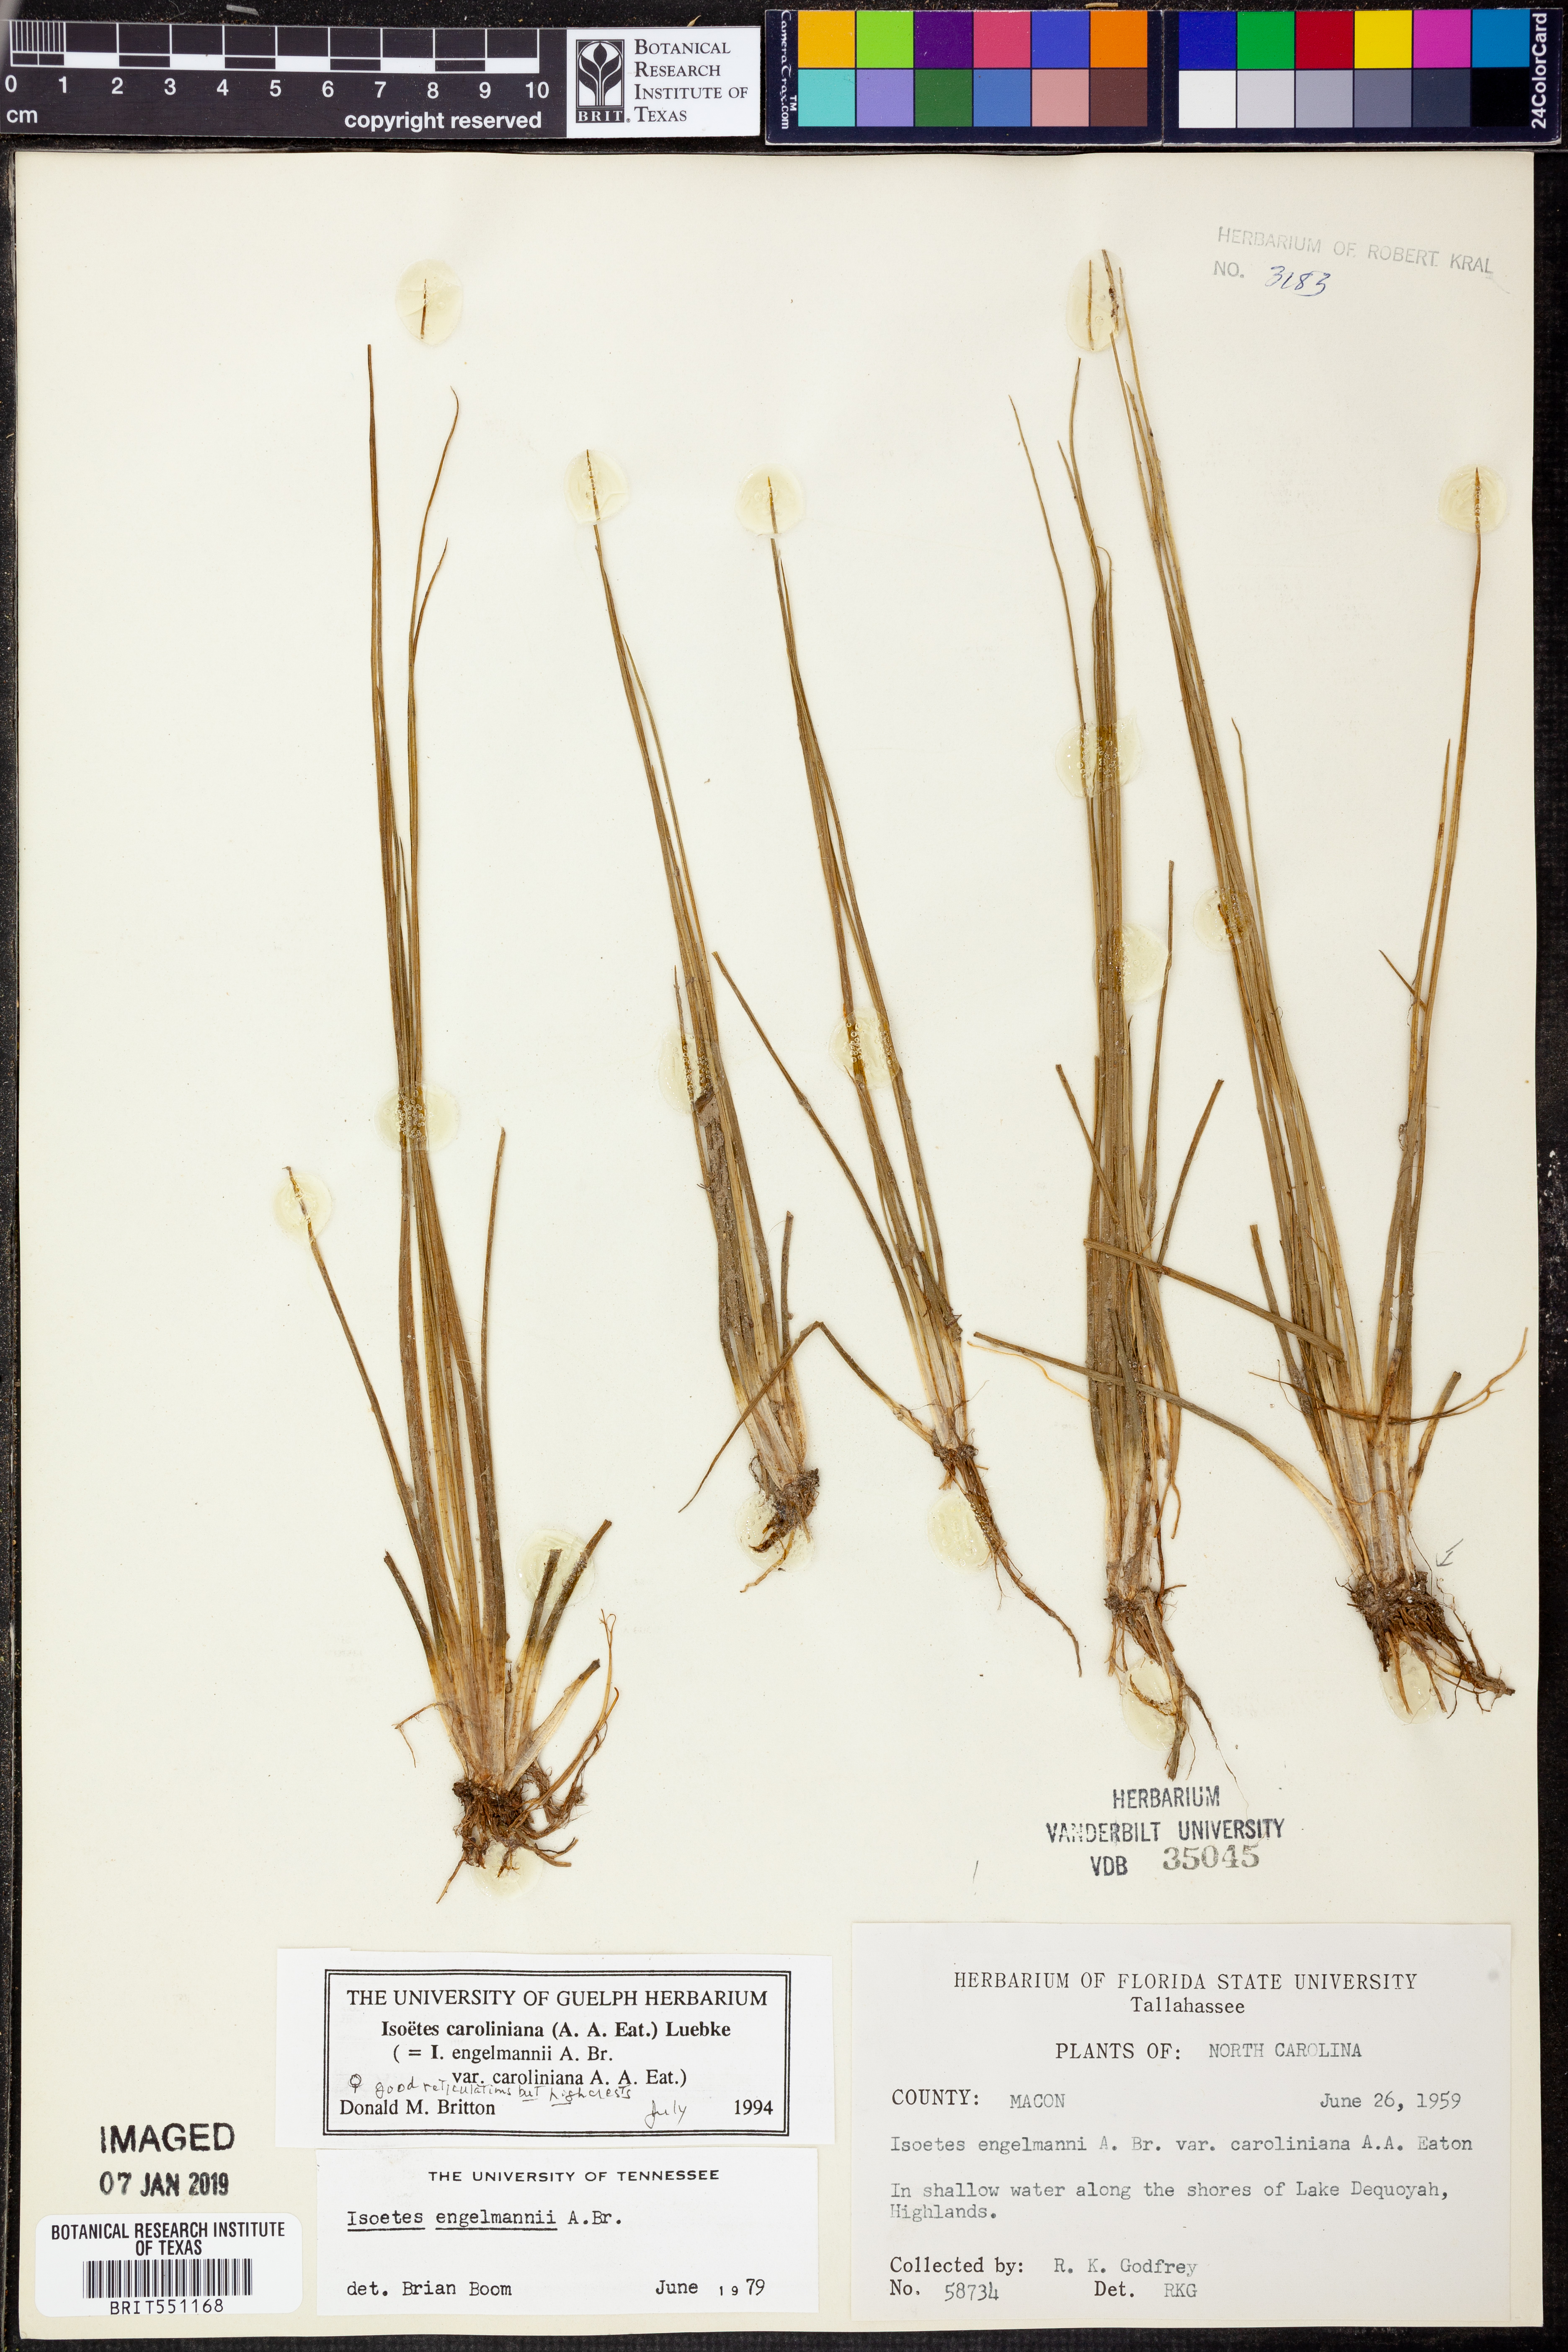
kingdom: Plantae
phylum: Tracheophyta
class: Lycopodiopsida
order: Isoetales
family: Isoetaceae
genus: Isoetes
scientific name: Isoetes caroliniana
